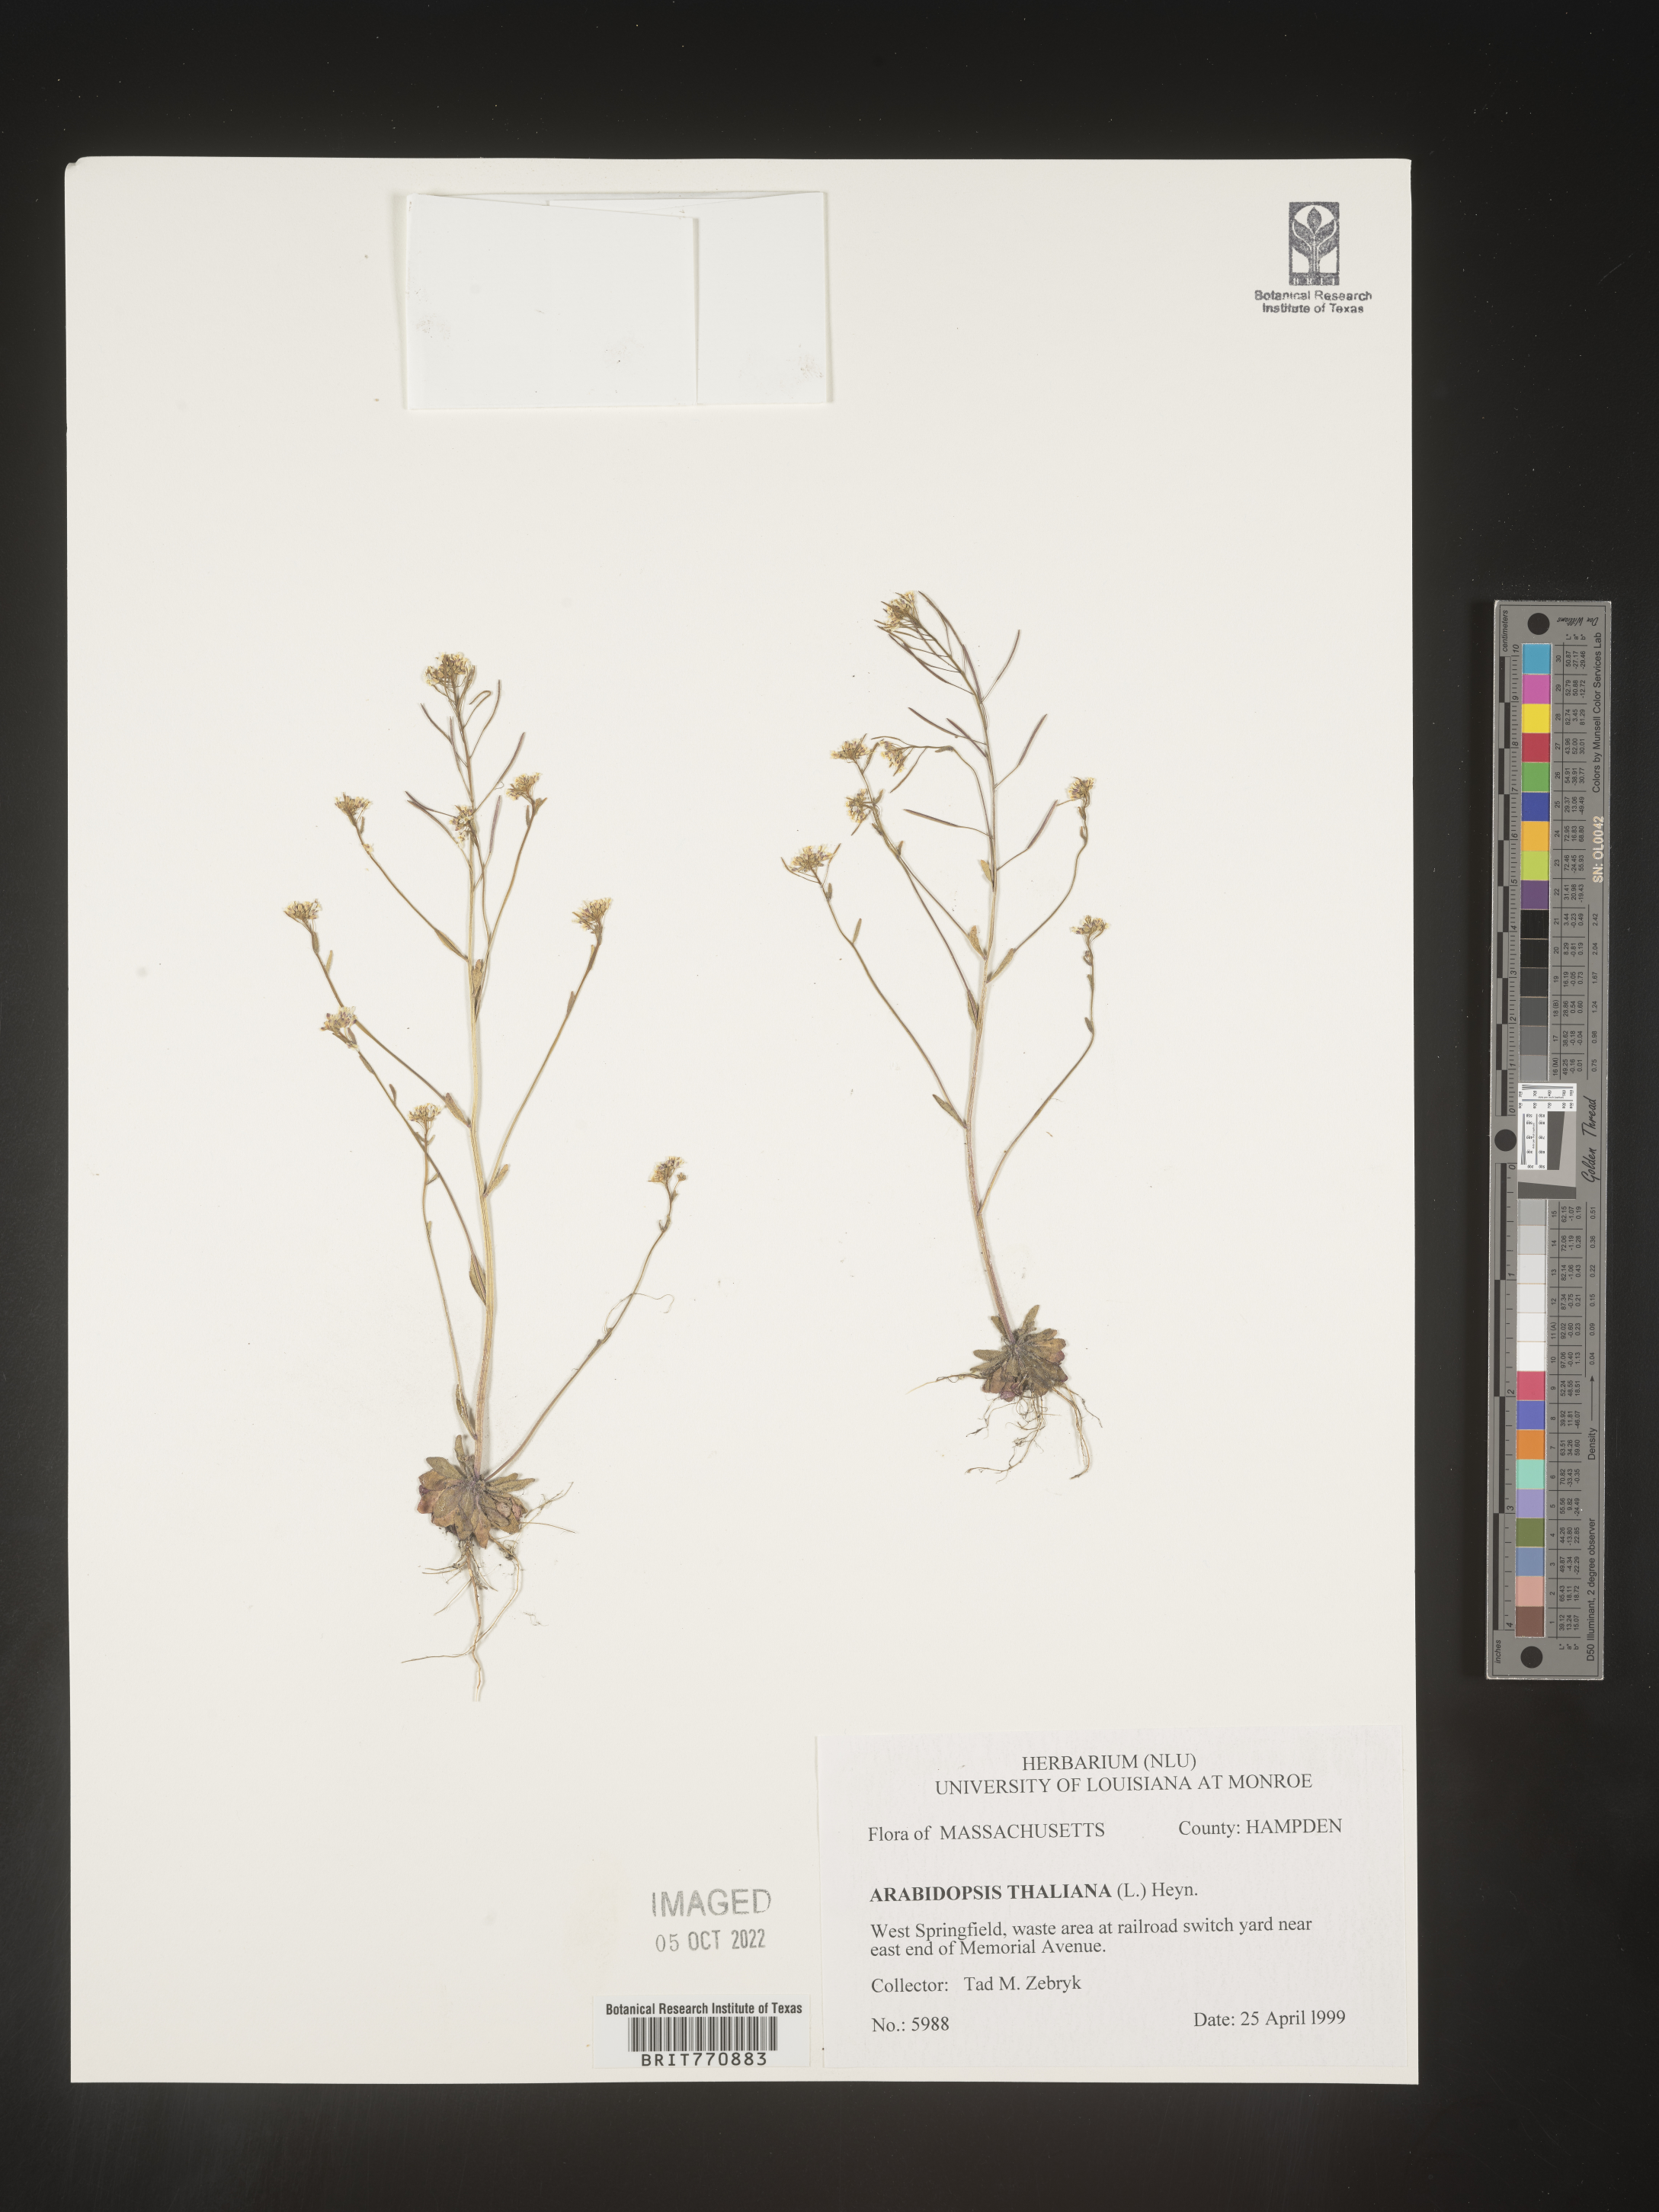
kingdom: Plantae
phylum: Tracheophyta
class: Magnoliopsida
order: Brassicales
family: Brassicaceae
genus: Arabidopsis
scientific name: Arabidopsis thaliana
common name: Thale cress
